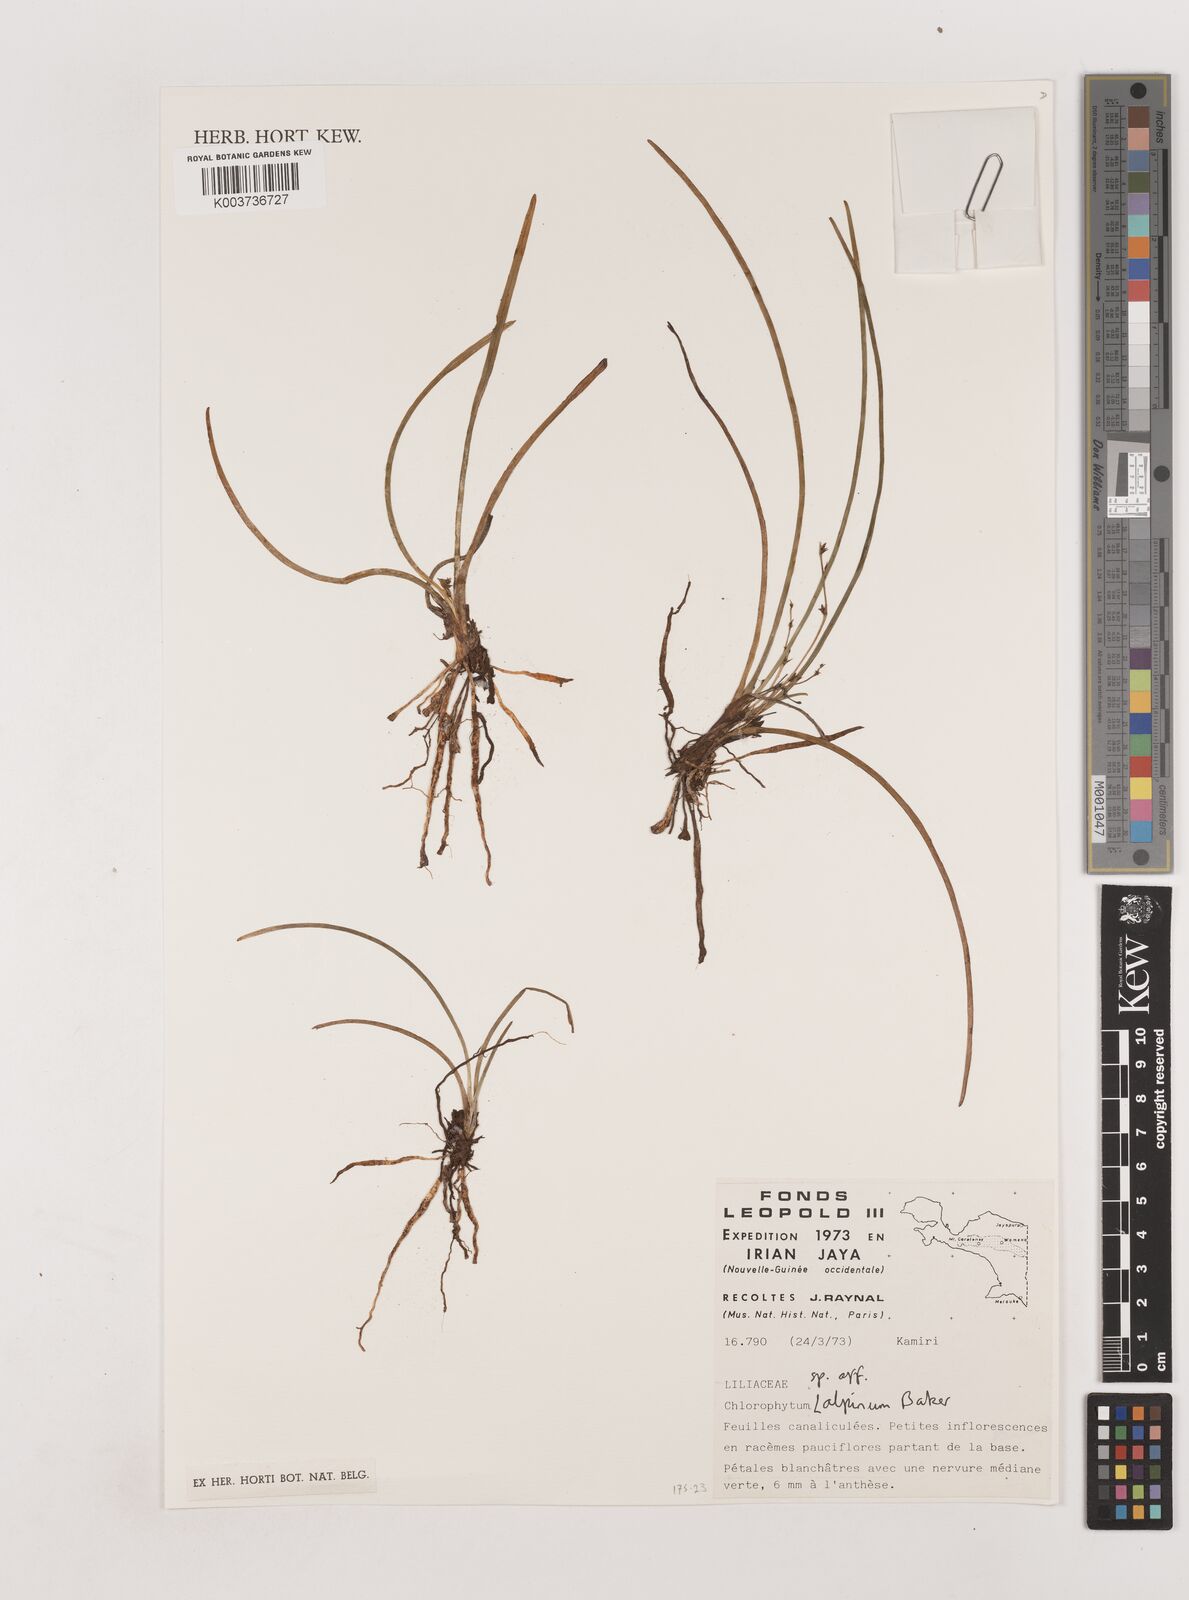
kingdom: Plantae
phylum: Tracheophyta
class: Liliopsida
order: Asparagales
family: Asparagaceae
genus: Chlorophytum
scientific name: Chlorophytum alpinum
